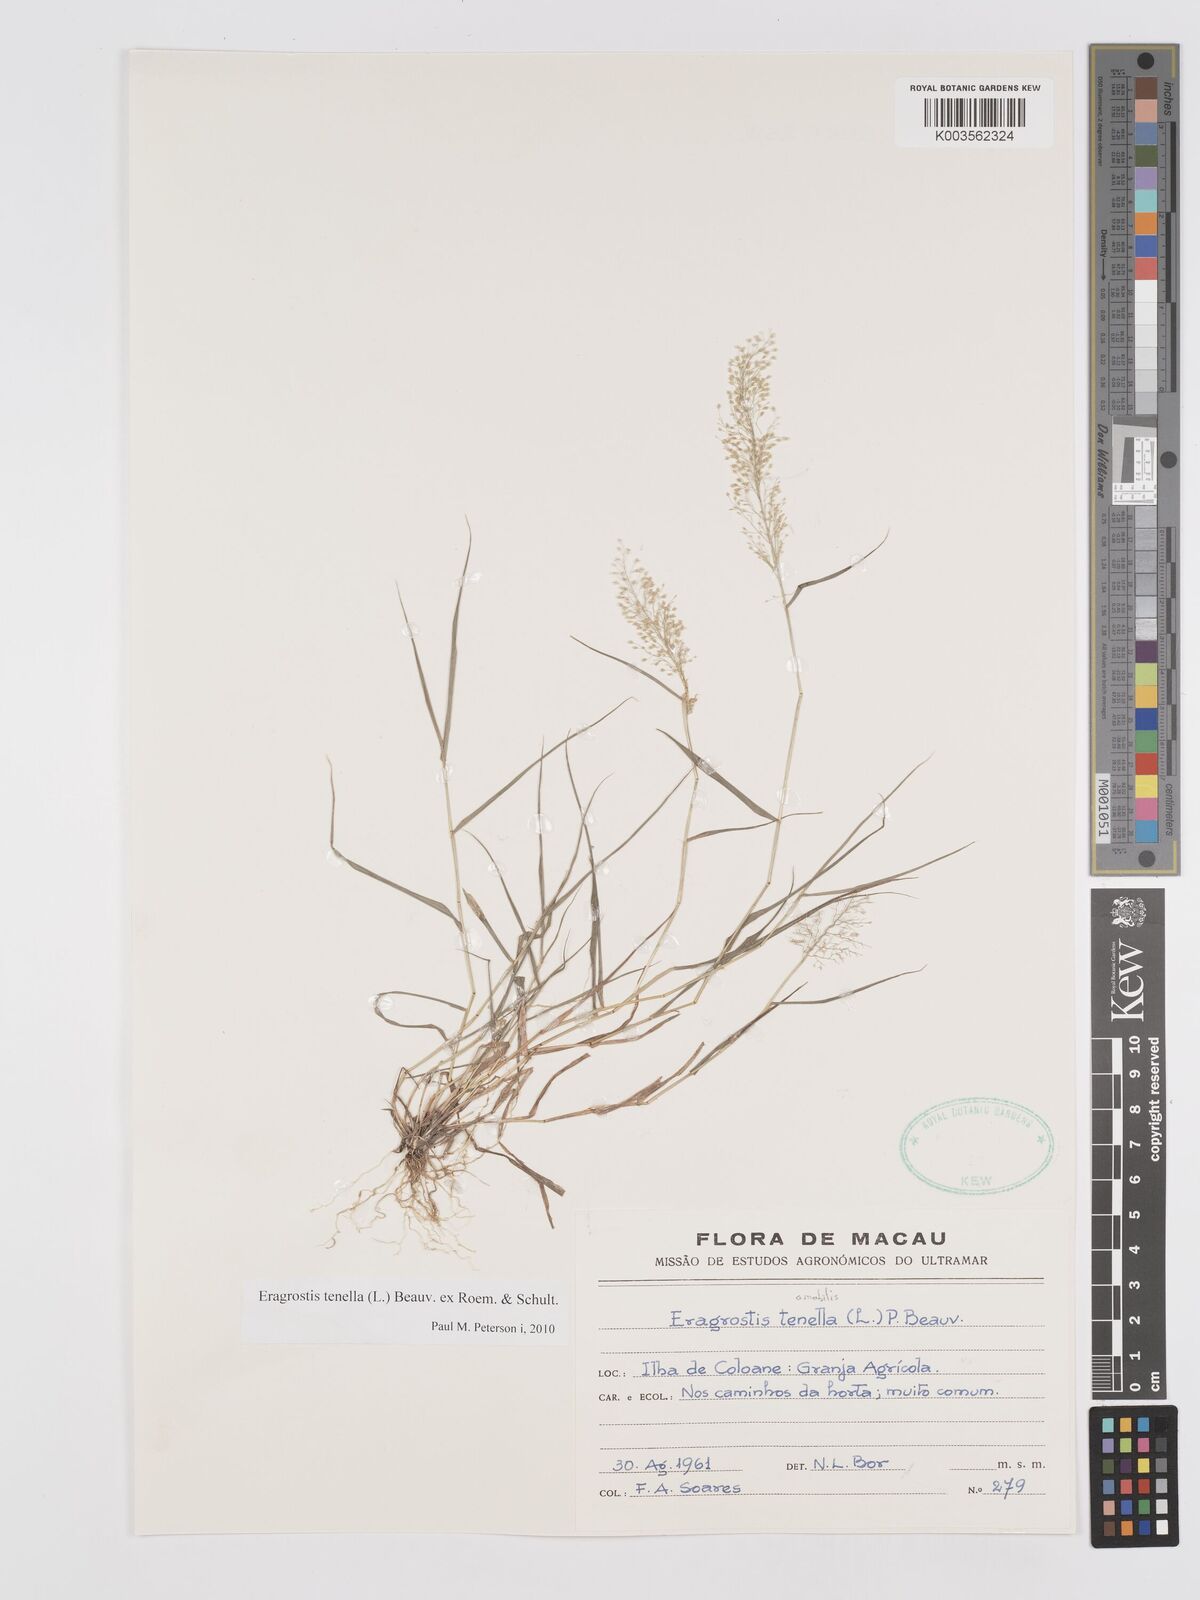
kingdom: Plantae
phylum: Tracheophyta
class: Liliopsida
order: Poales
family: Poaceae
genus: Eragrostis
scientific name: Eragrostis tenella
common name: Japanese lovegrass
